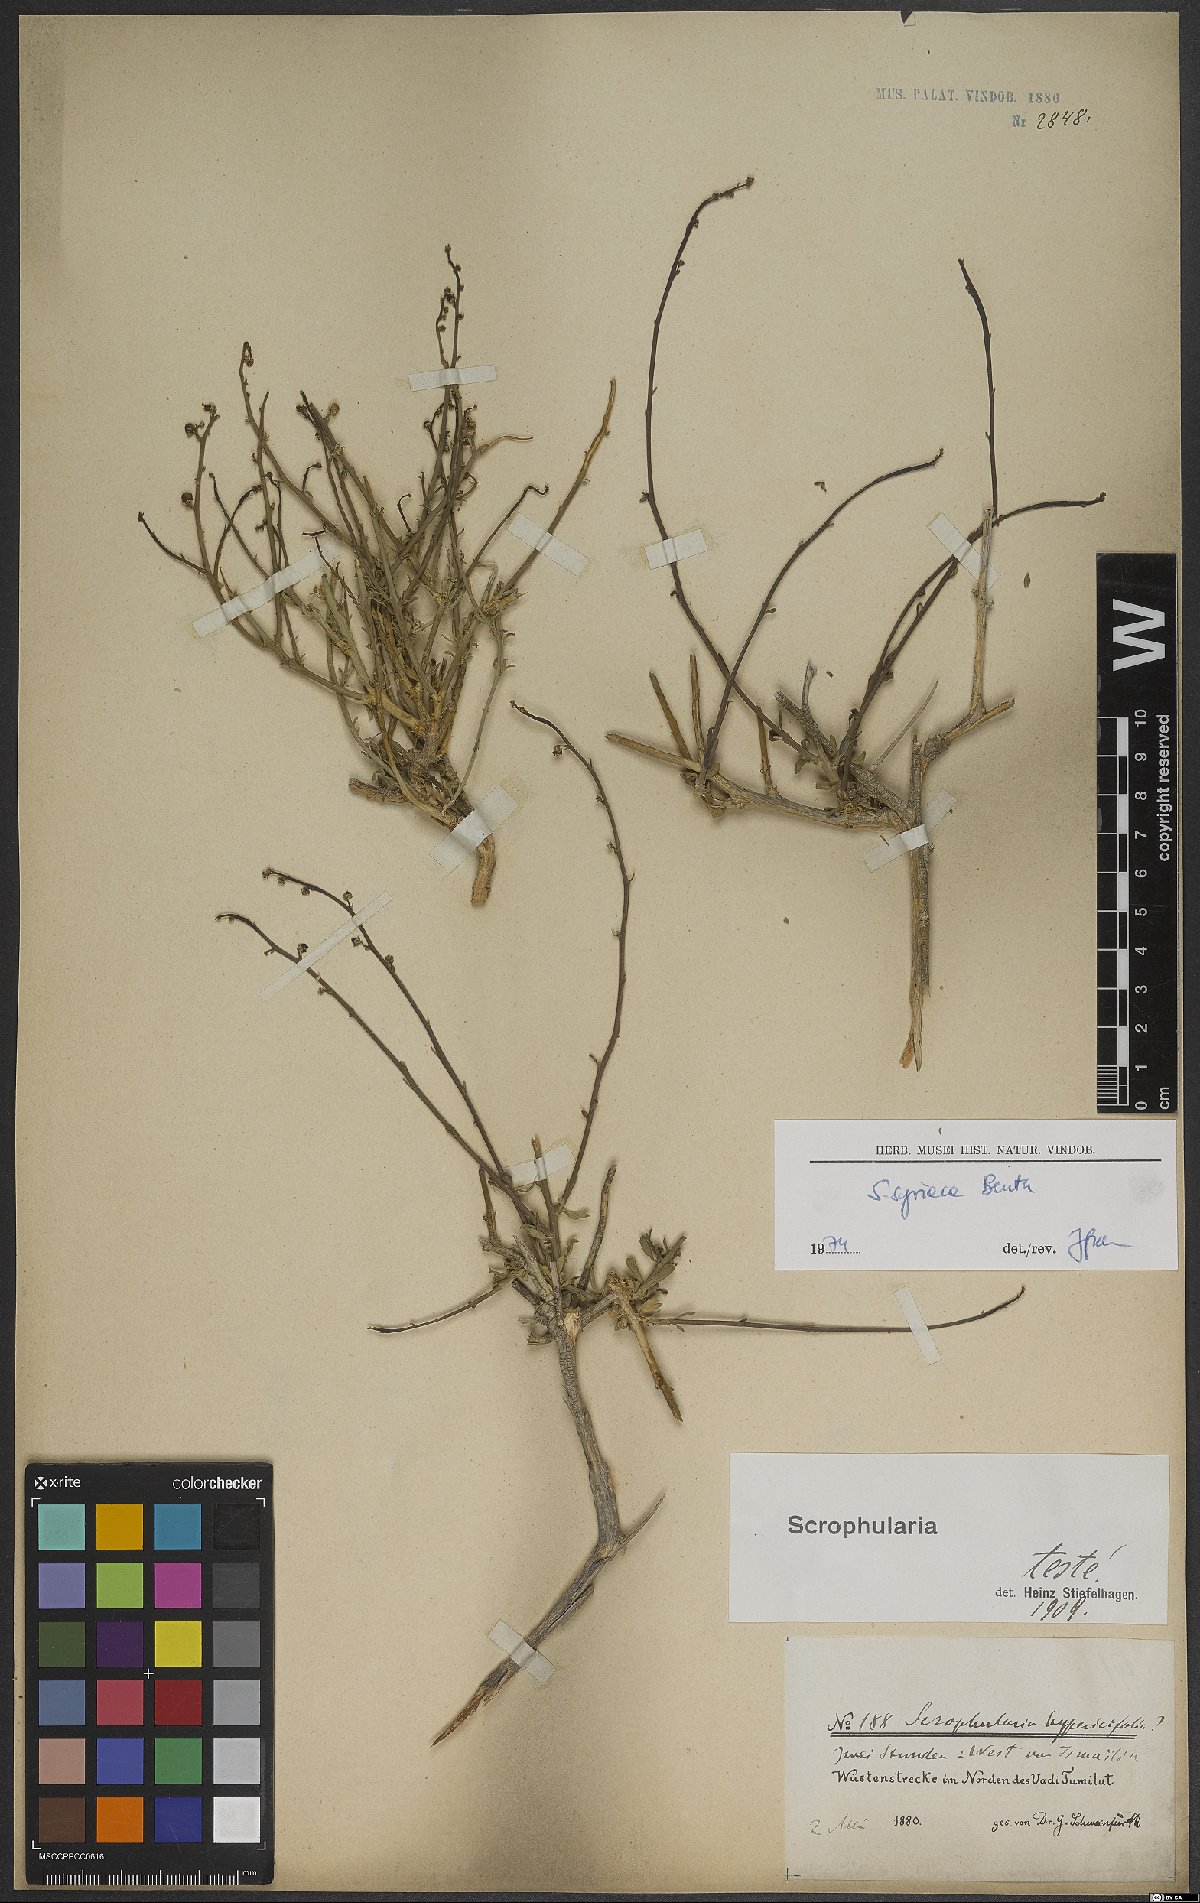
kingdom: Plantae
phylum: Tracheophyta
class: Magnoliopsida
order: Lamiales
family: Scrophulariaceae
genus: Scrophularia
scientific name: Scrophularia hypericifolia
